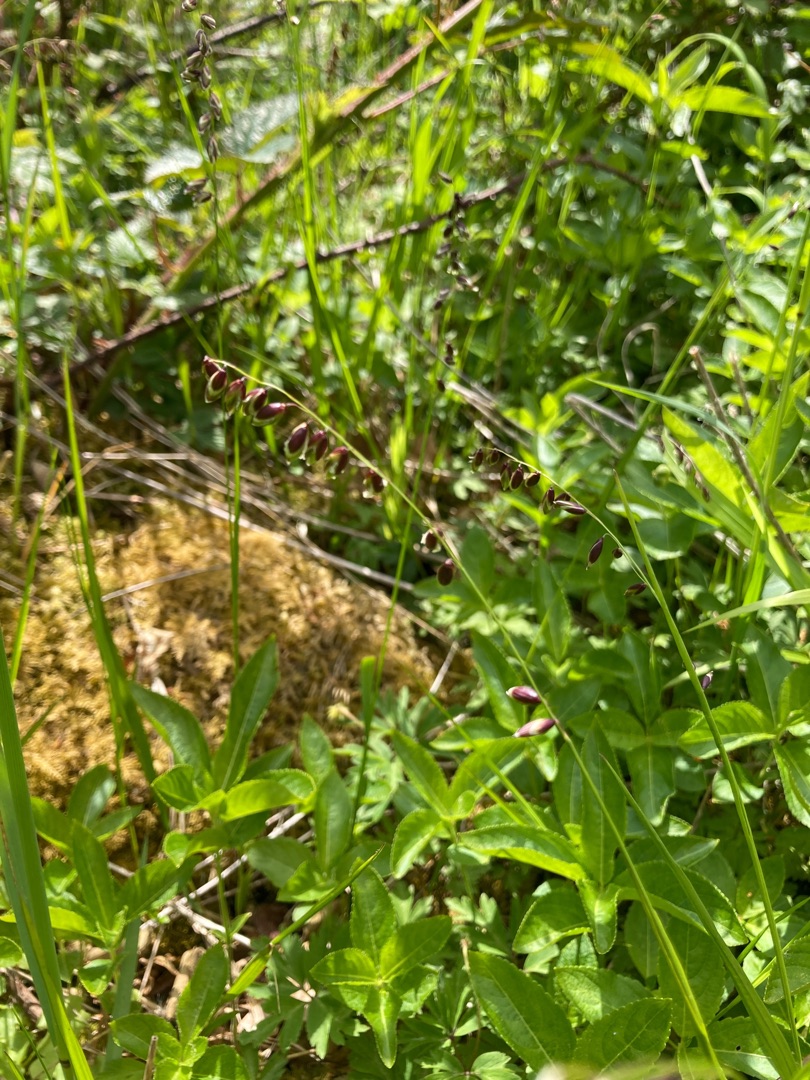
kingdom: Plantae
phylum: Tracheophyta
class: Liliopsida
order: Poales
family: Poaceae
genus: Melica
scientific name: Melica nutans
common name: Nikkende flitteraks
